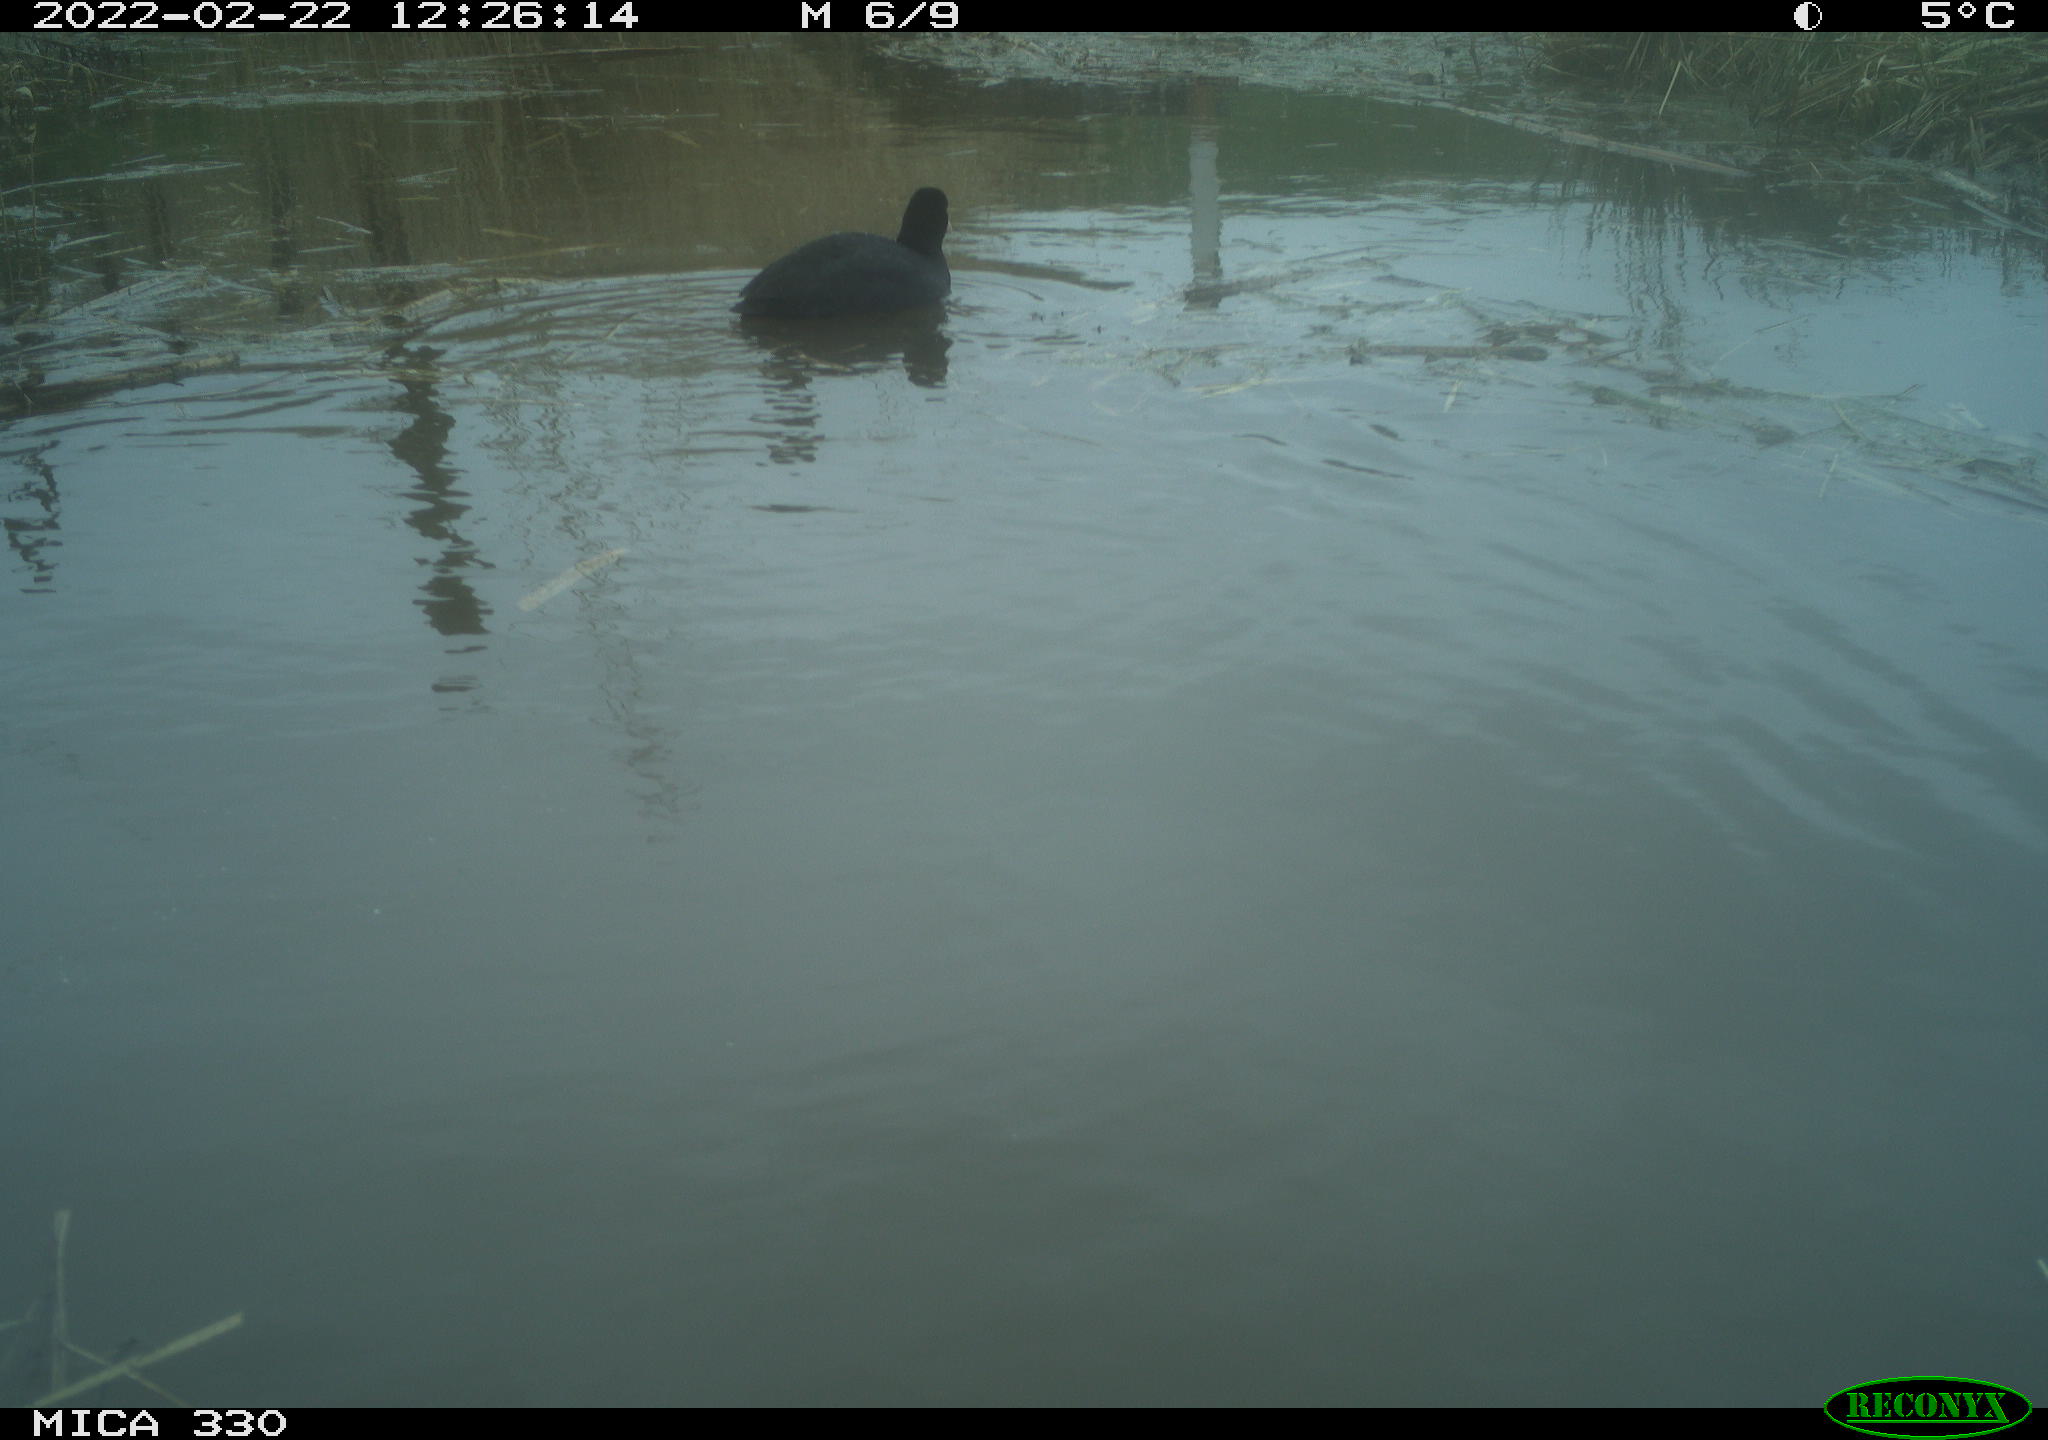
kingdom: Animalia
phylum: Chordata
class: Aves
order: Gruiformes
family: Rallidae
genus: Fulica
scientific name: Fulica atra
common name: Eurasian coot
